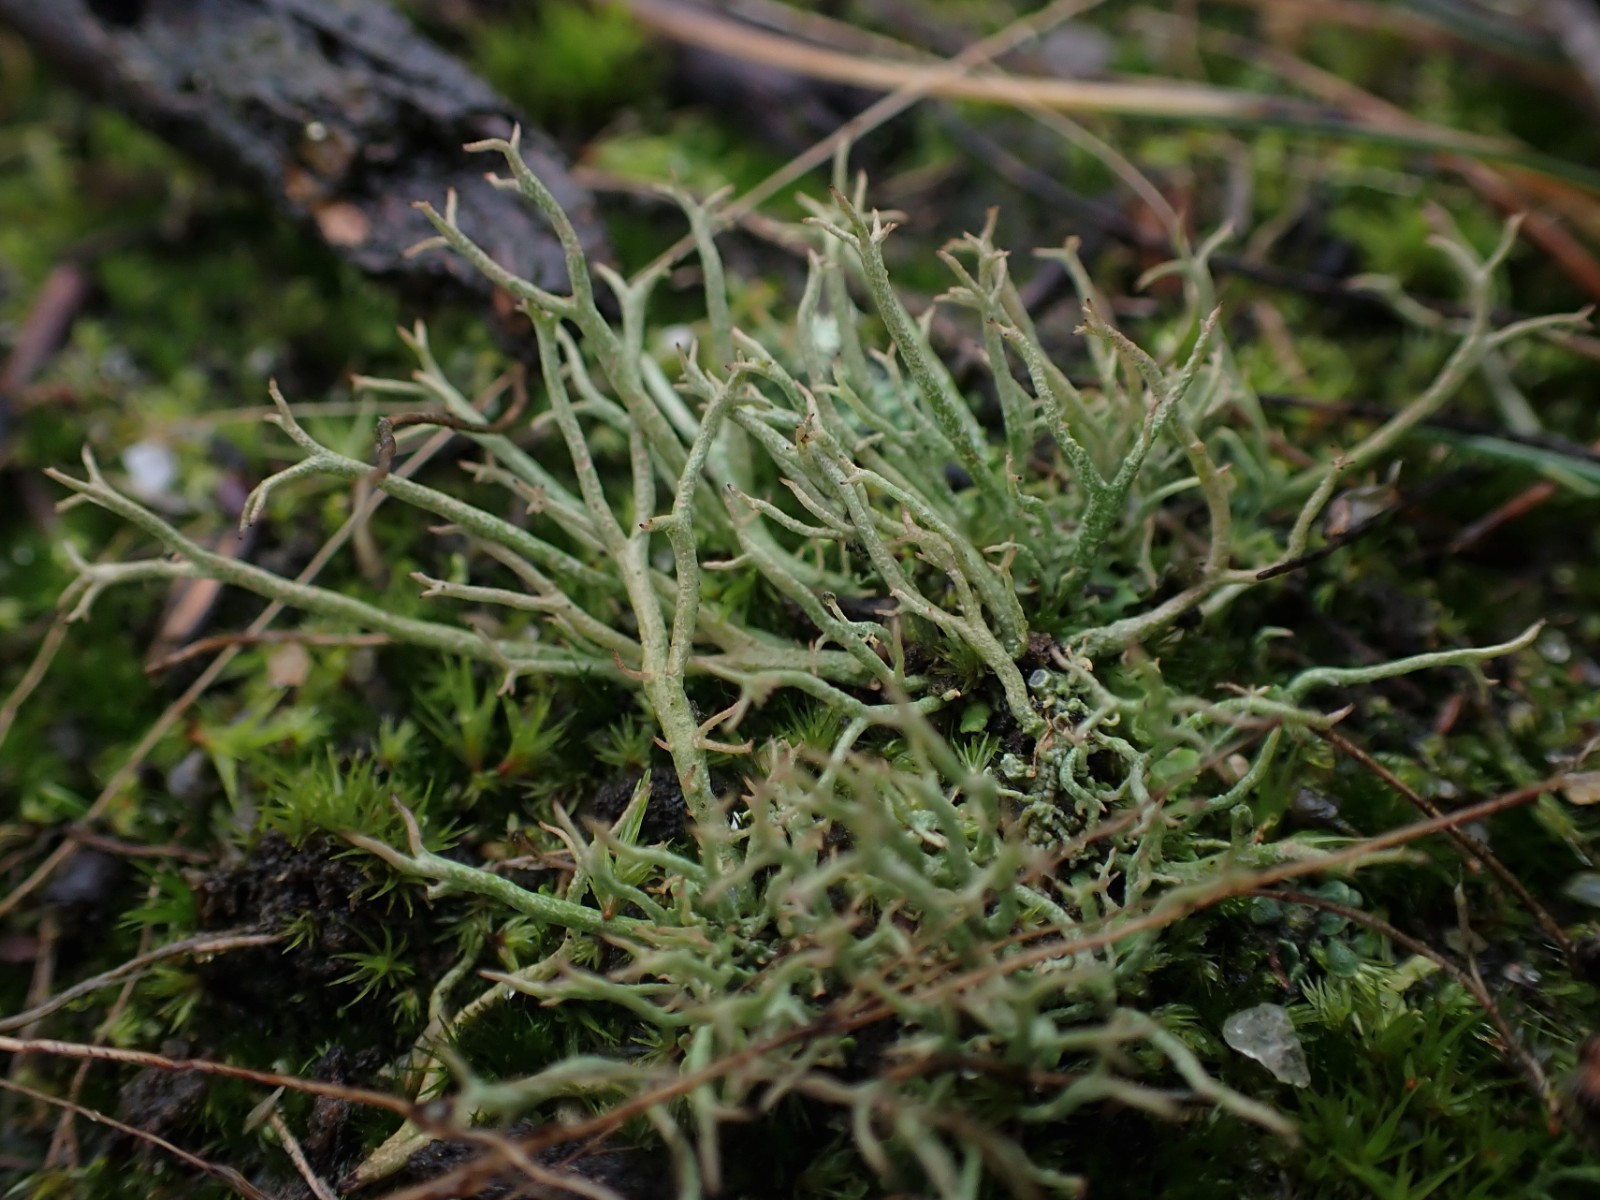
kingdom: Fungi
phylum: Ascomycota
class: Lecanoromycetes
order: Lecanorales
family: Cladoniaceae
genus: Cladonia
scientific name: Cladonia furcata
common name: kløftet bægerlav
